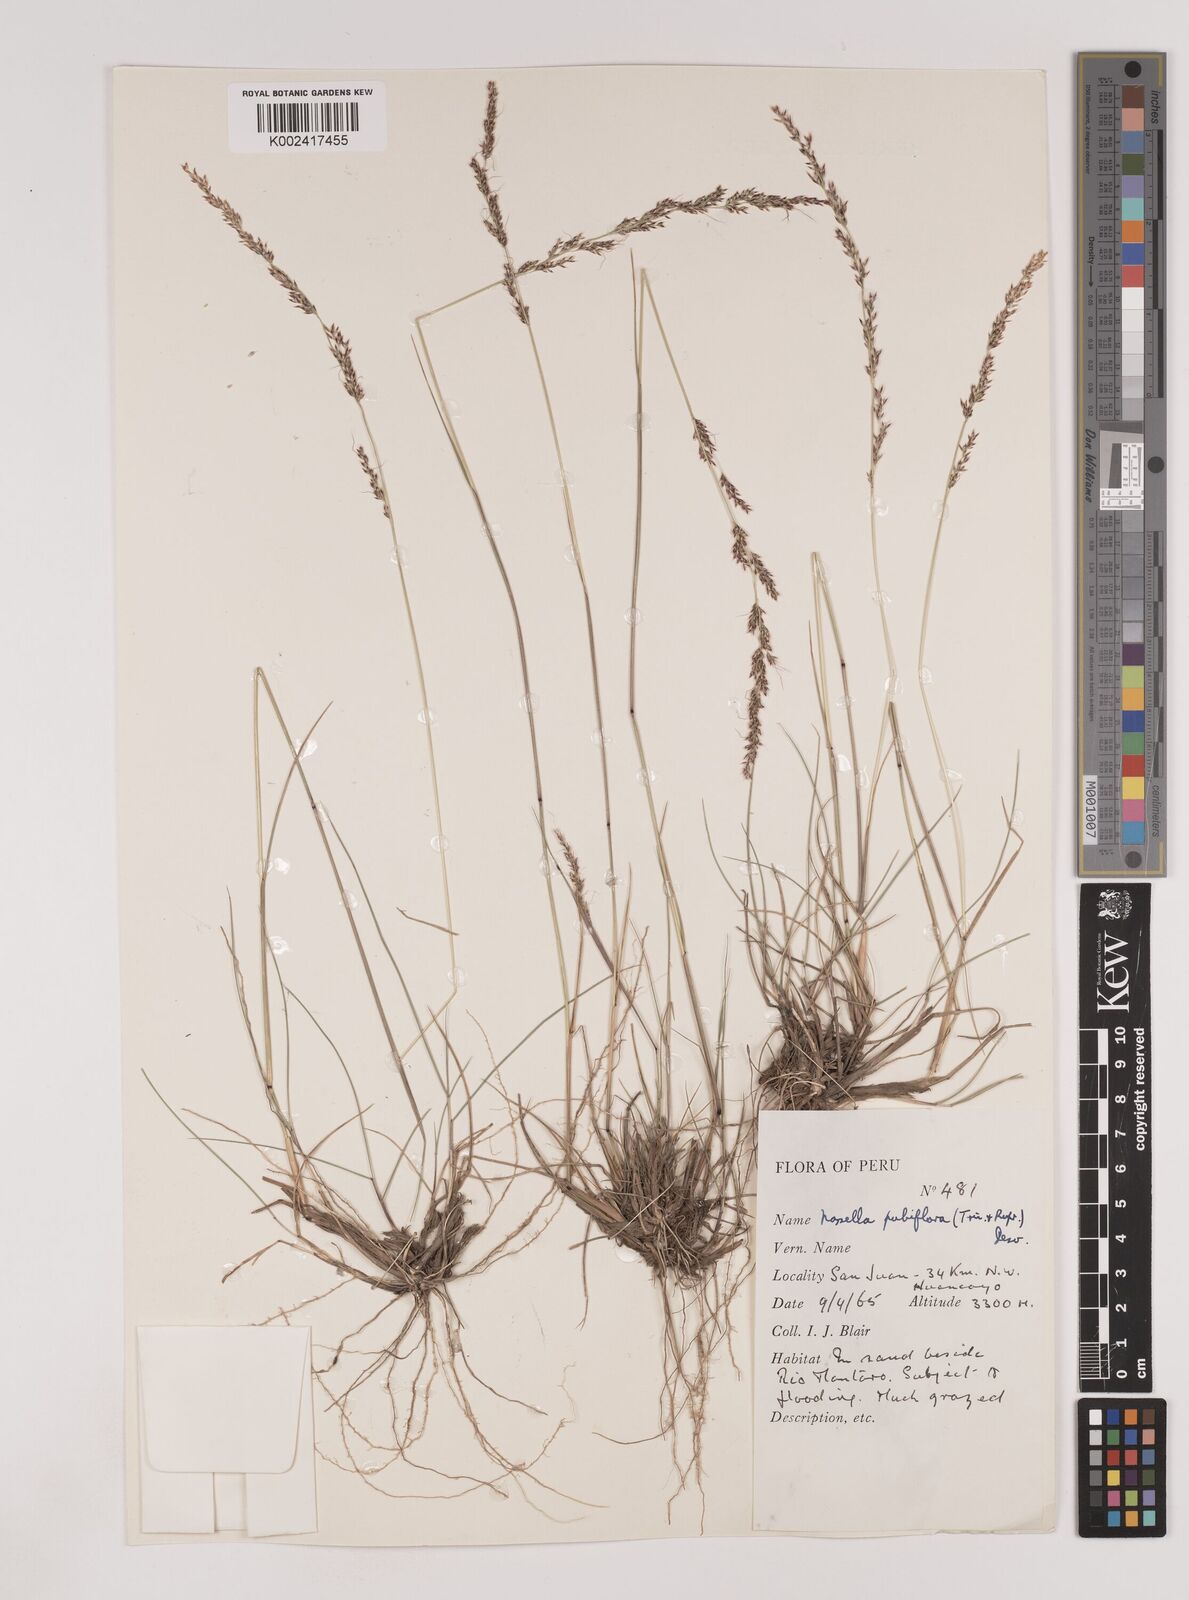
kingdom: Plantae
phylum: Tracheophyta
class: Liliopsida
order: Poales
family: Poaceae
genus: Nassella
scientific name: Nassella meyeniana
